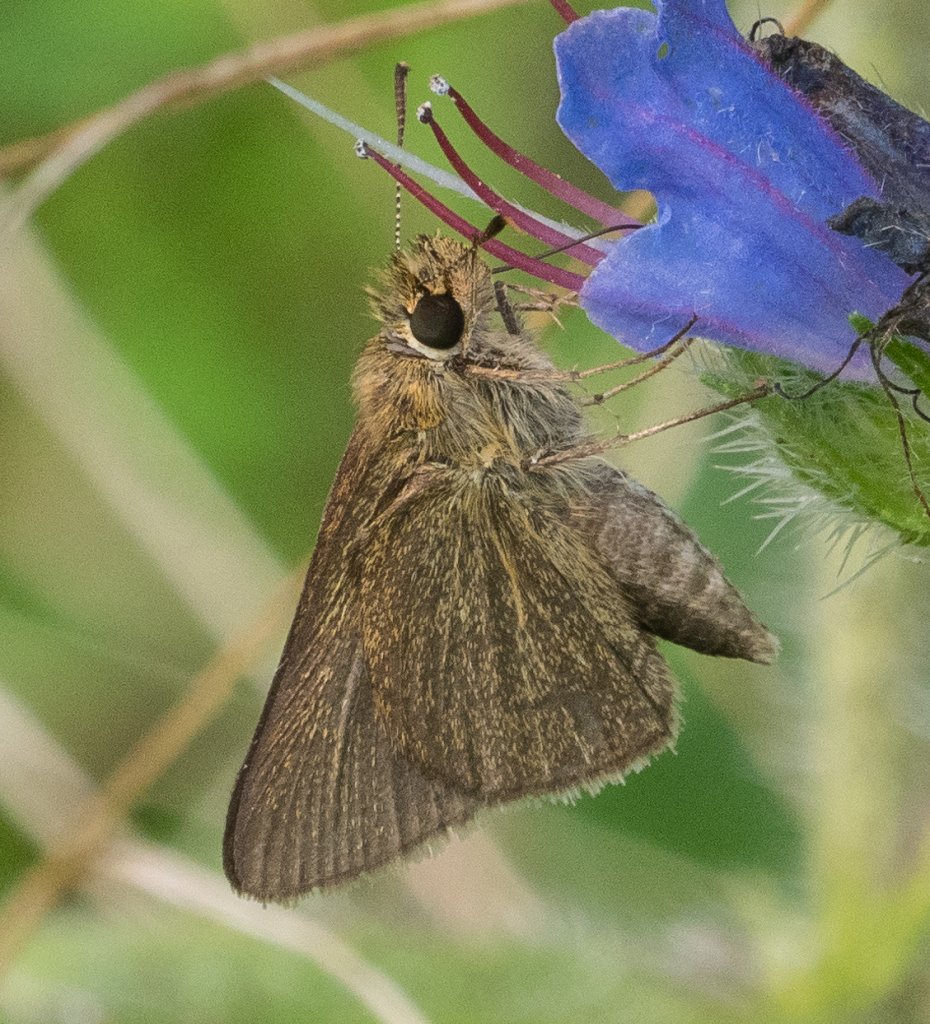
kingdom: Animalia
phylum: Arthropoda
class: Insecta
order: Lepidoptera
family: Hesperiidae
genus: Euphyes
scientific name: Euphyes vestris
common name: Dun Skipper
